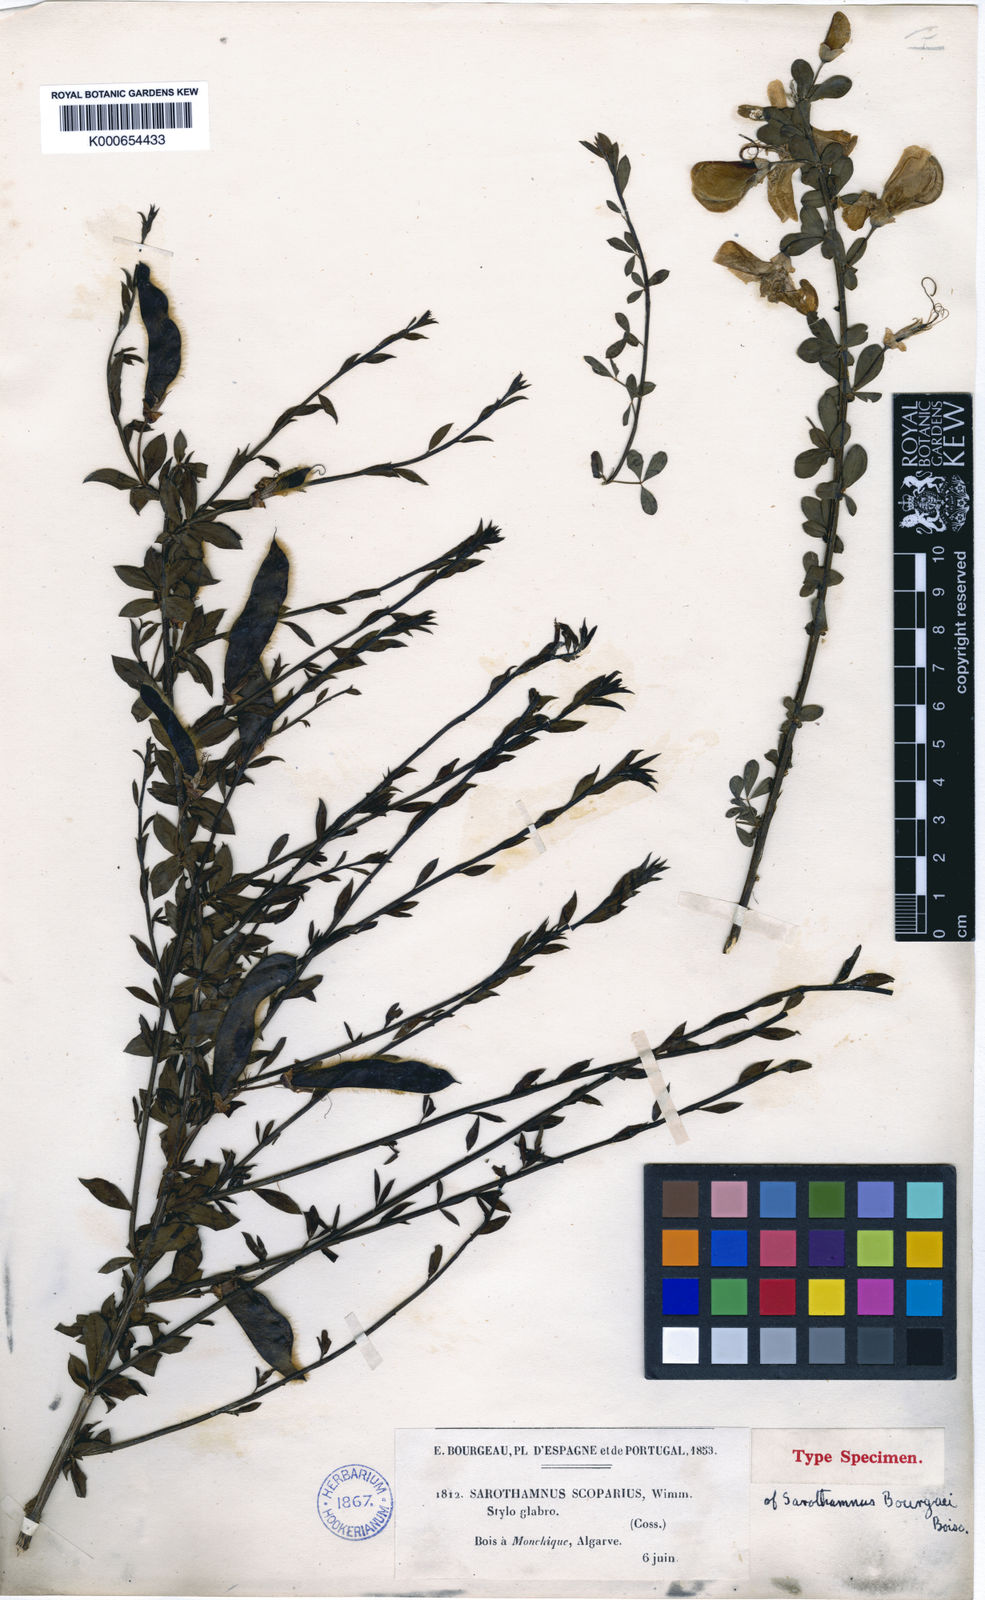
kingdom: Plantae
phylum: Tracheophyta
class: Magnoliopsida
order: Fabales
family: Fabaceae
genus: Cytisus
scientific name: Cytisus scoparius
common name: Scotch broom
